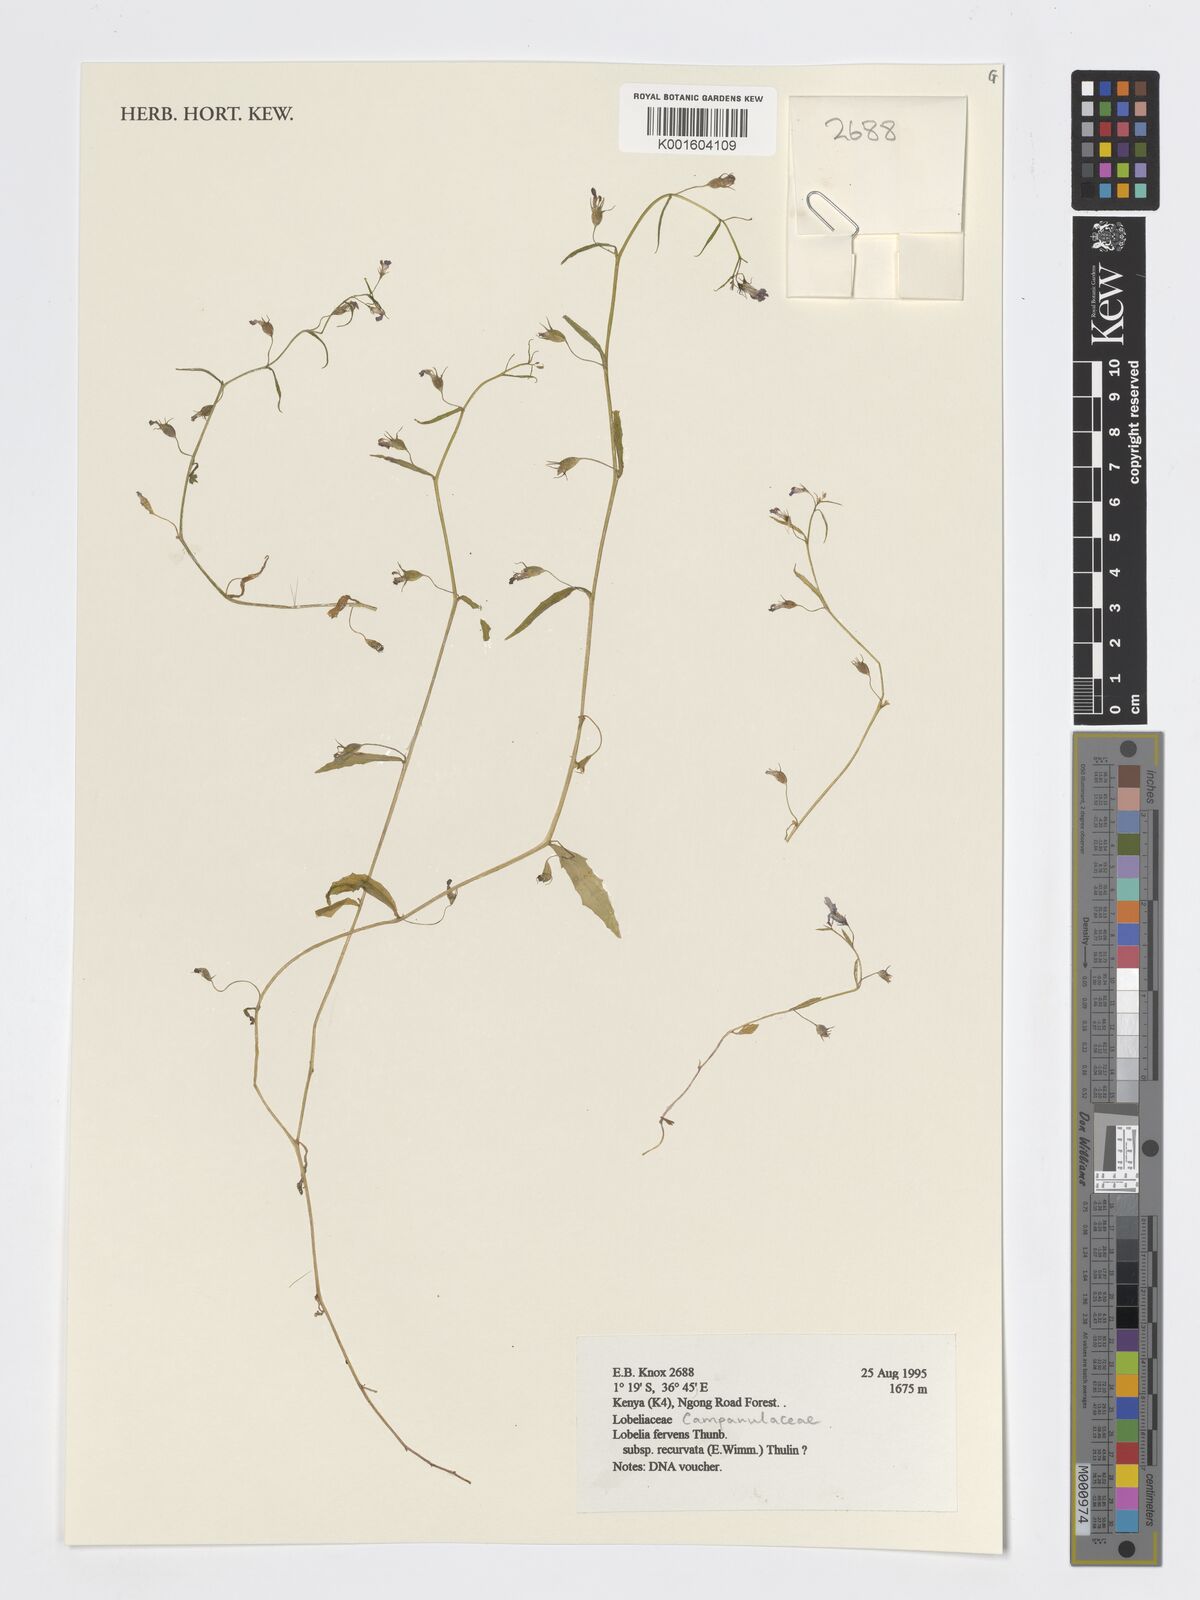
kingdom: Plantae
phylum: Tracheophyta
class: Magnoliopsida
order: Asterales
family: Campanulaceae
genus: Lobelia
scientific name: Lobelia fervens
